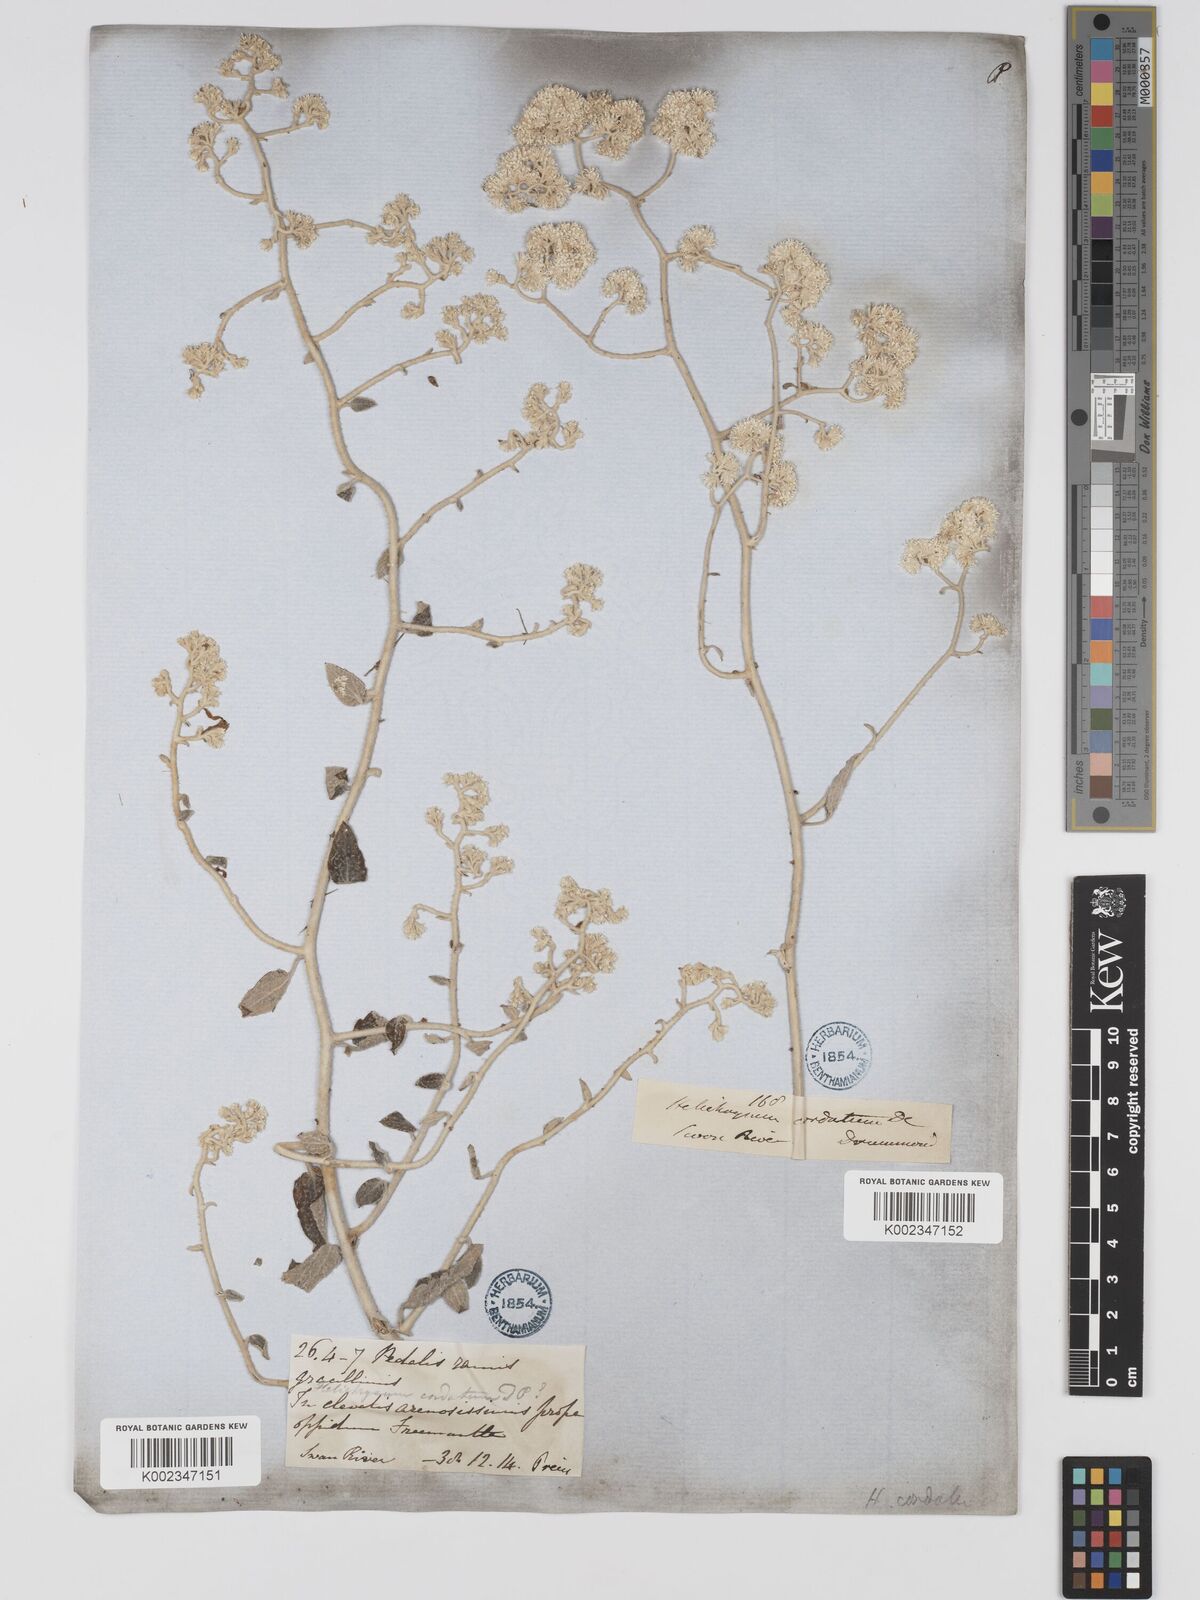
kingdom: Plantae
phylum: Tracheophyta
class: Magnoliopsida
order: Asterales
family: Asteraceae
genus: Ozothamnus
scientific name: Ozothamnus
